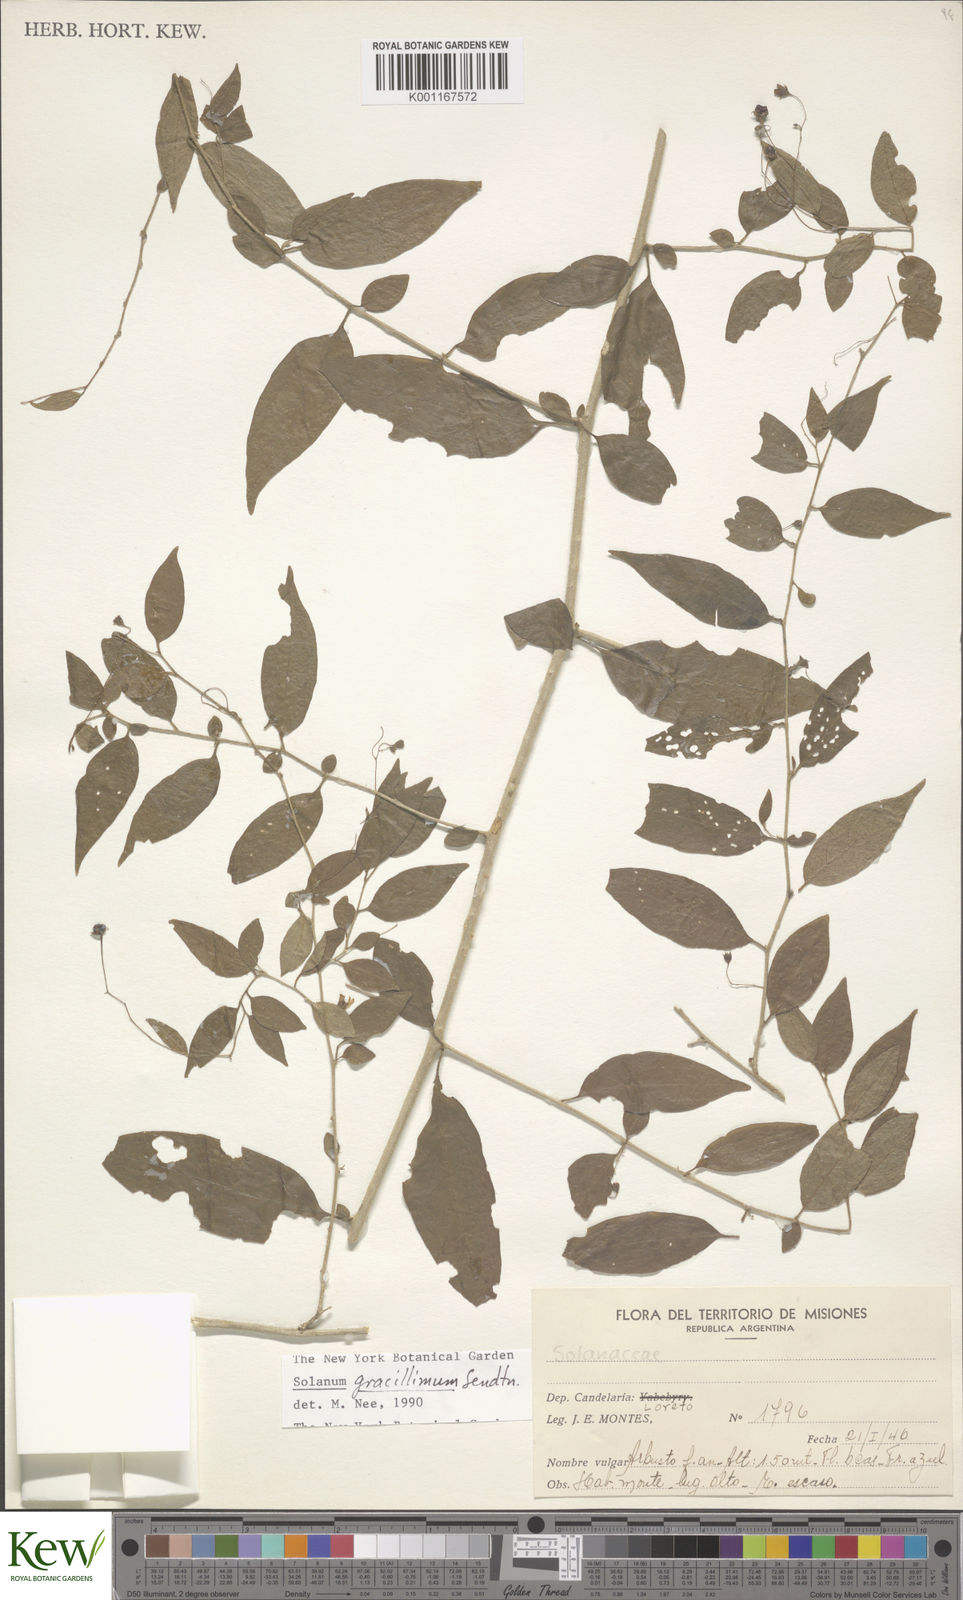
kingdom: Plantae
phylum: Tracheophyta
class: Magnoliopsida
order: Solanales
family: Solanaceae
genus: Solanum
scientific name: Solanum hirtellum
